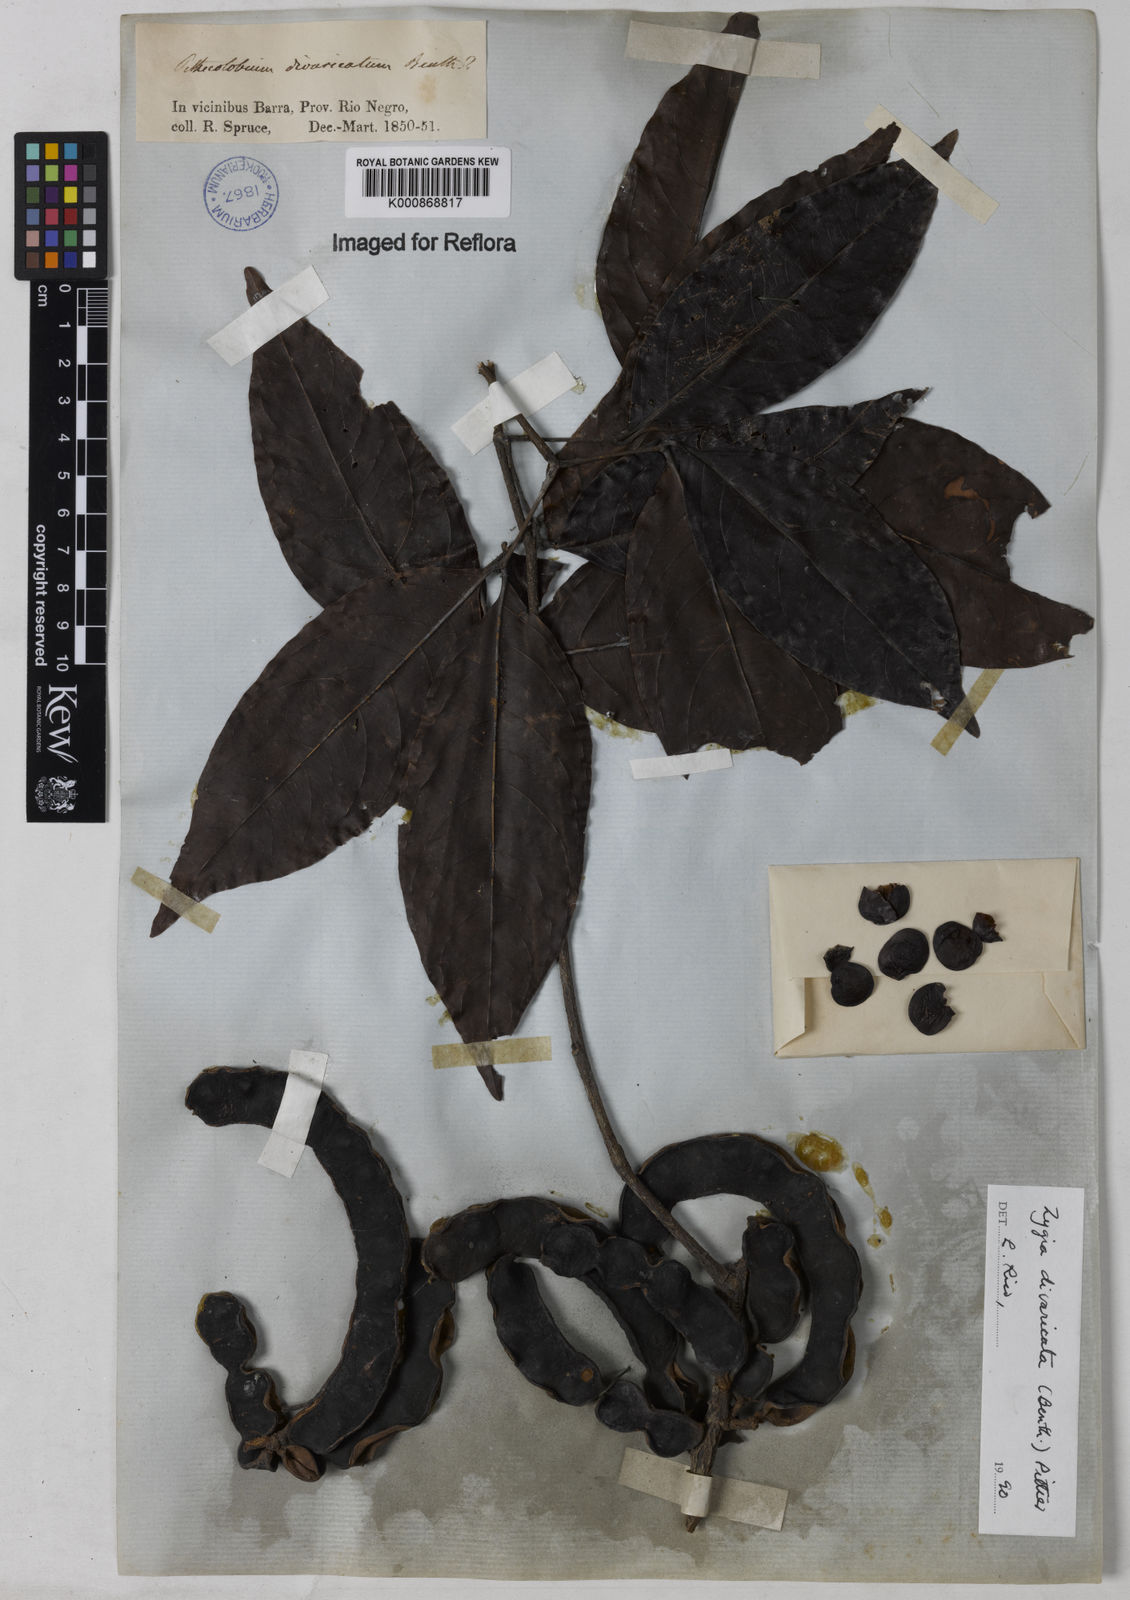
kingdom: Plantae
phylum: Tracheophyta
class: Magnoliopsida
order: Fabales
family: Fabaceae
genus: Zygia
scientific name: Zygia cataractae
